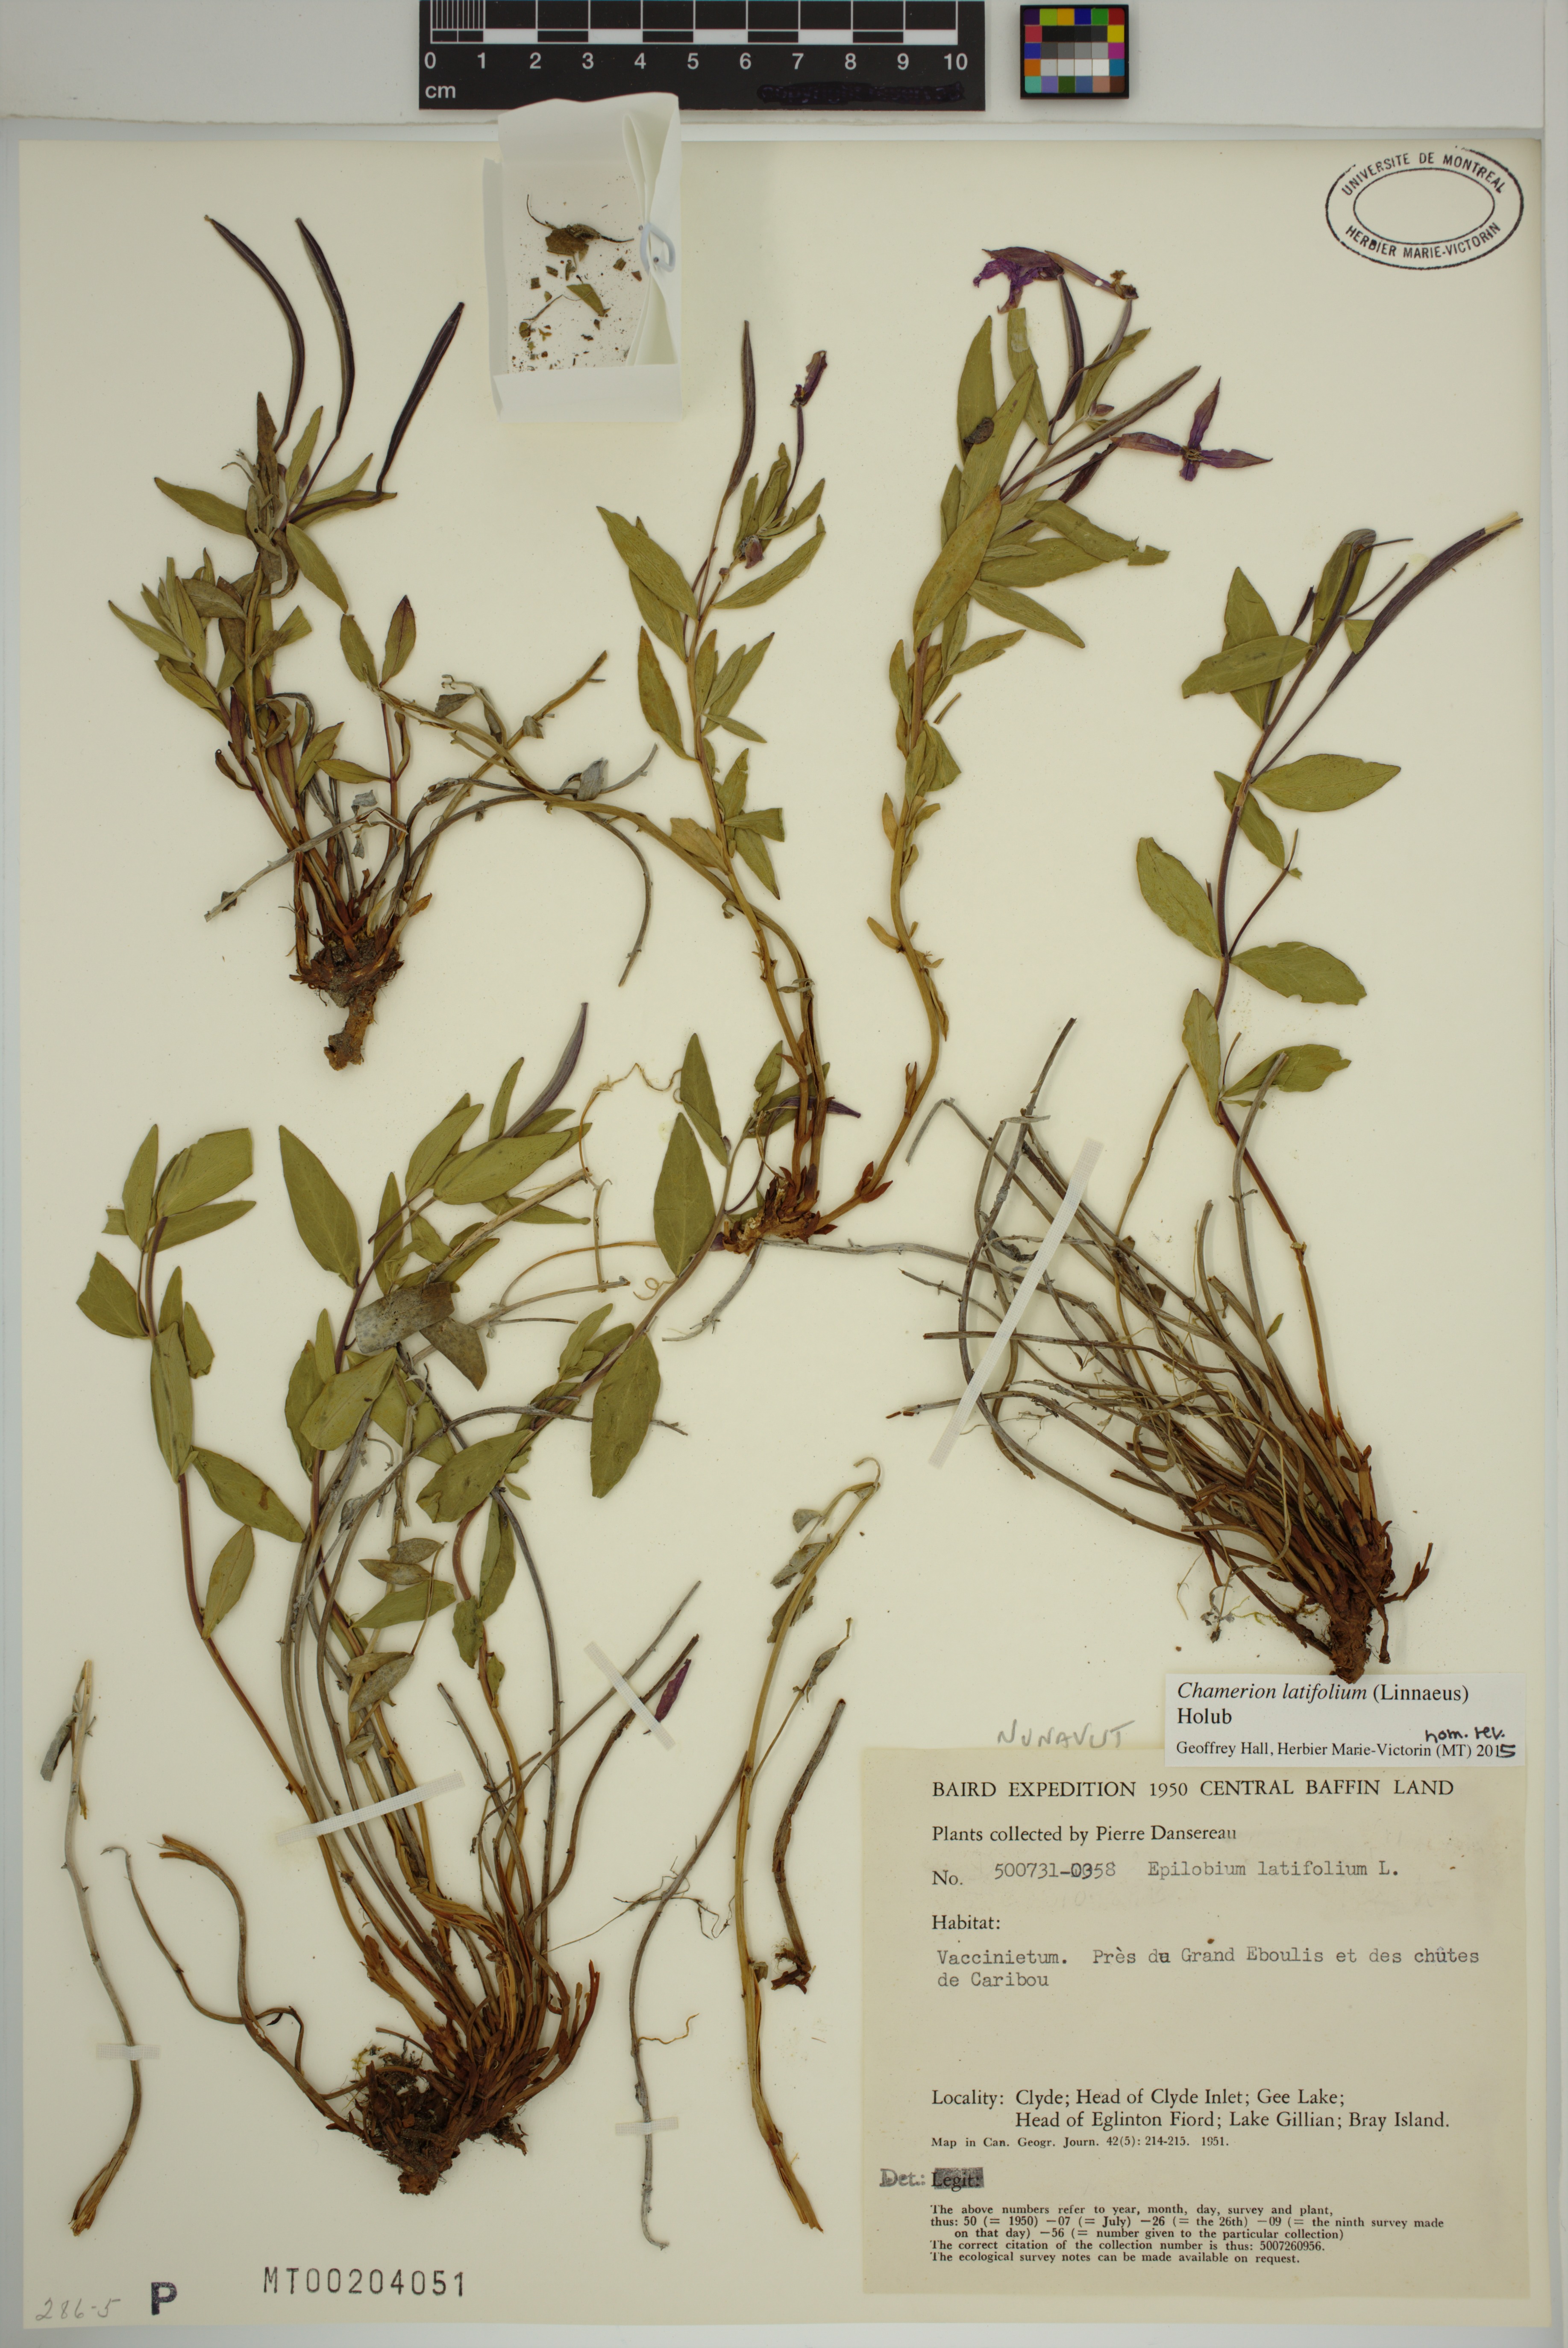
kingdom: Plantae
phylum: Tracheophyta
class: Magnoliopsida
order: Myrtales
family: Onagraceae
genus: Chamaenerion
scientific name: Chamaenerion latifolium
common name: Dwarf fireweed
